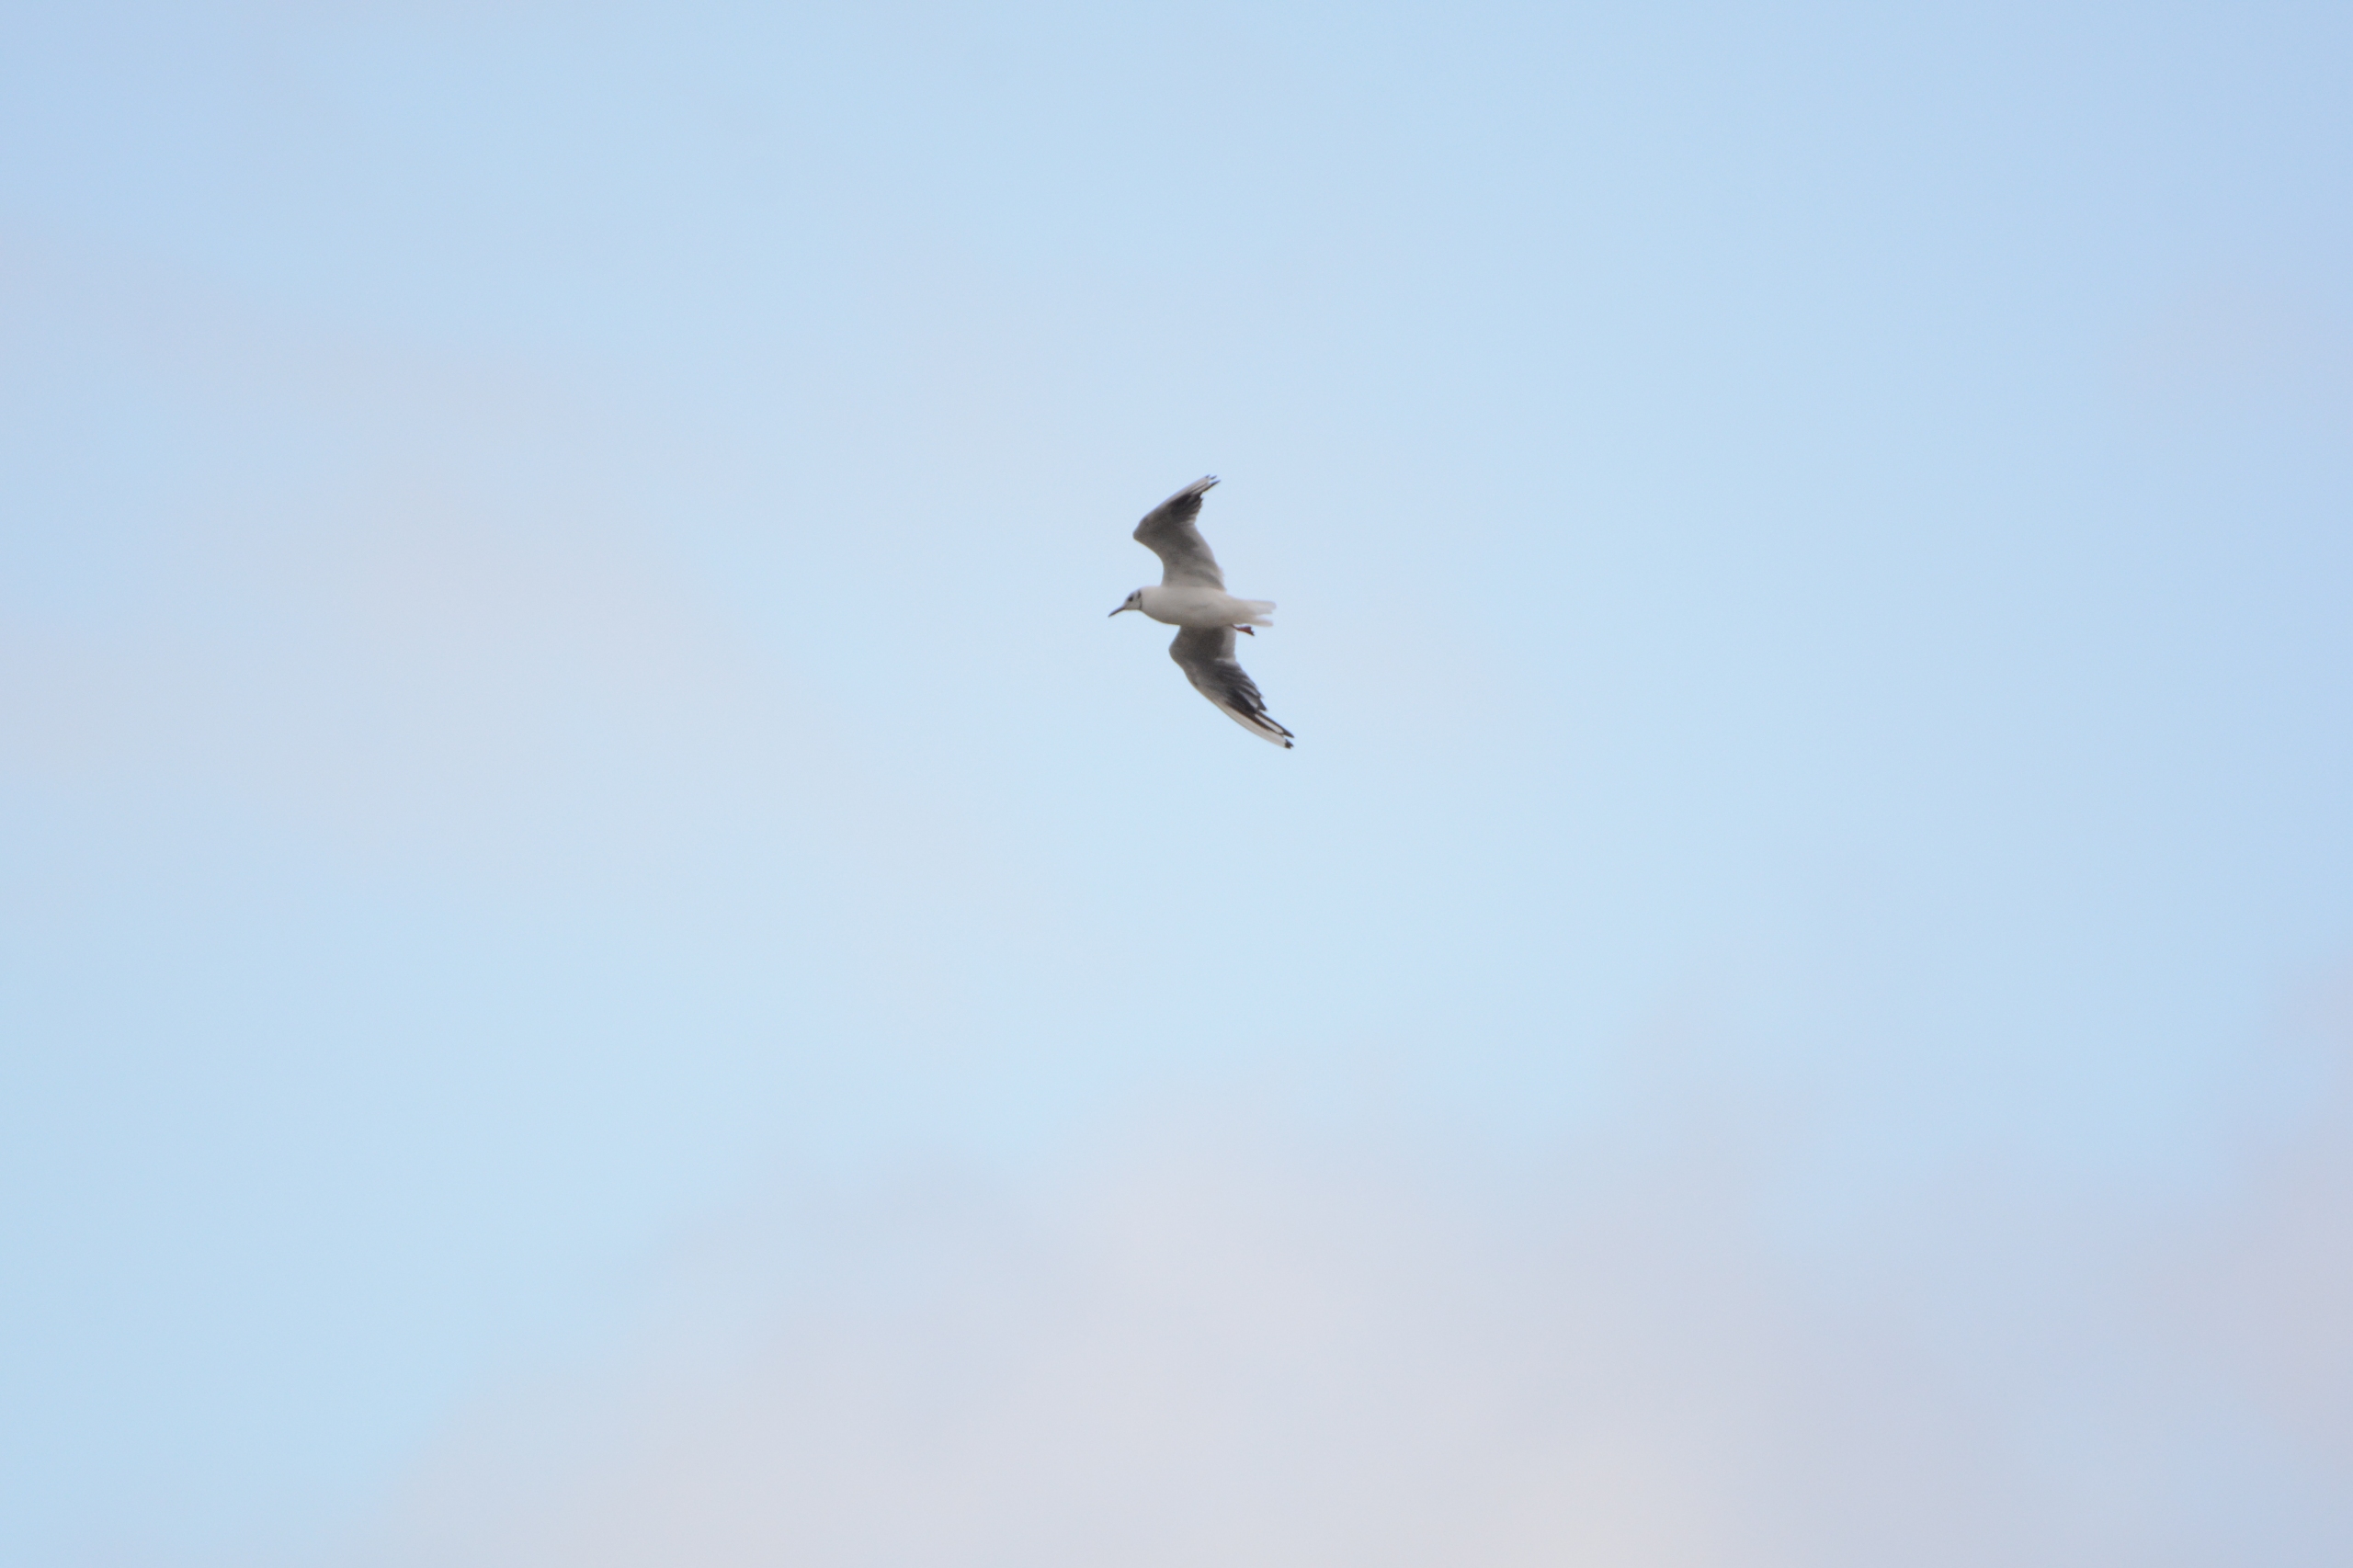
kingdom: Animalia
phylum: Chordata
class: Aves
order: Charadriiformes
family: Laridae
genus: Chroicocephalus
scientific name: Chroicocephalus ridibundus
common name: Hættemåge
